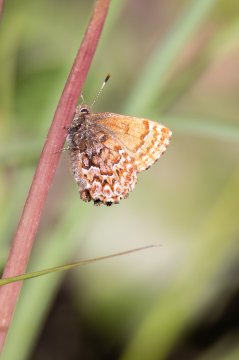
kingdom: Animalia
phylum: Arthropoda
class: Insecta
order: Lepidoptera
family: Lycaenidae
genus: Incisalia
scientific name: Incisalia eryphon
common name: Western Pine Elfin
